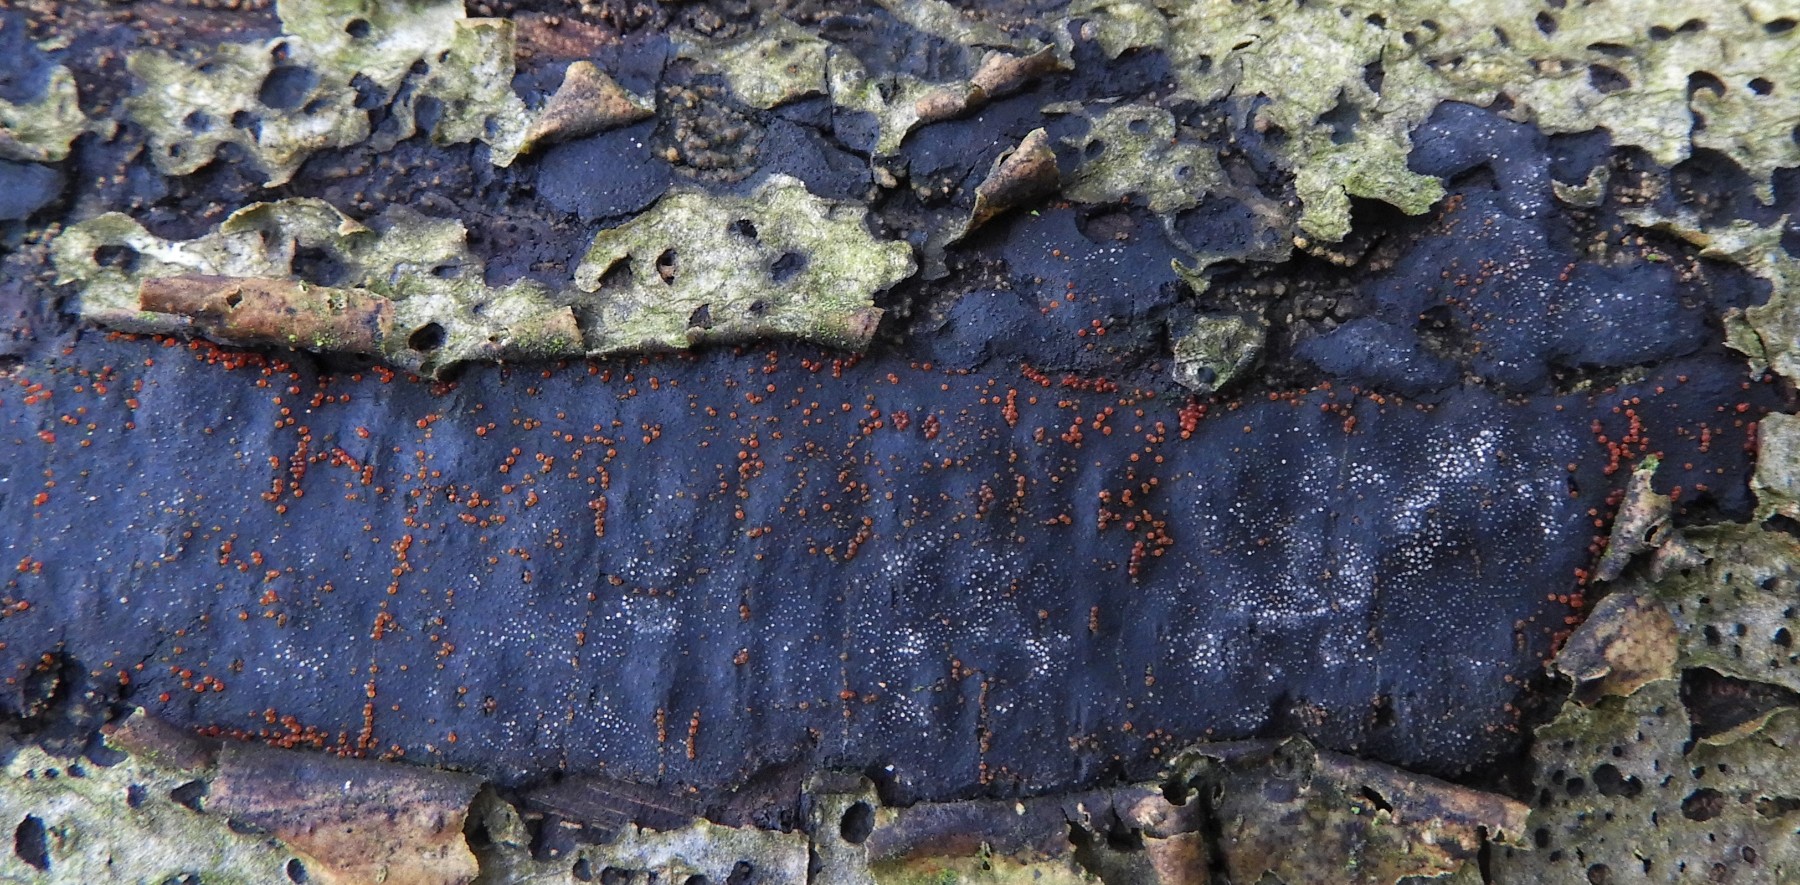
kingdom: Fungi
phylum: Ascomycota
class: Sordariomycetes
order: Xylariales
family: Diatrypaceae
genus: Diatrype
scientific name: Diatrype
